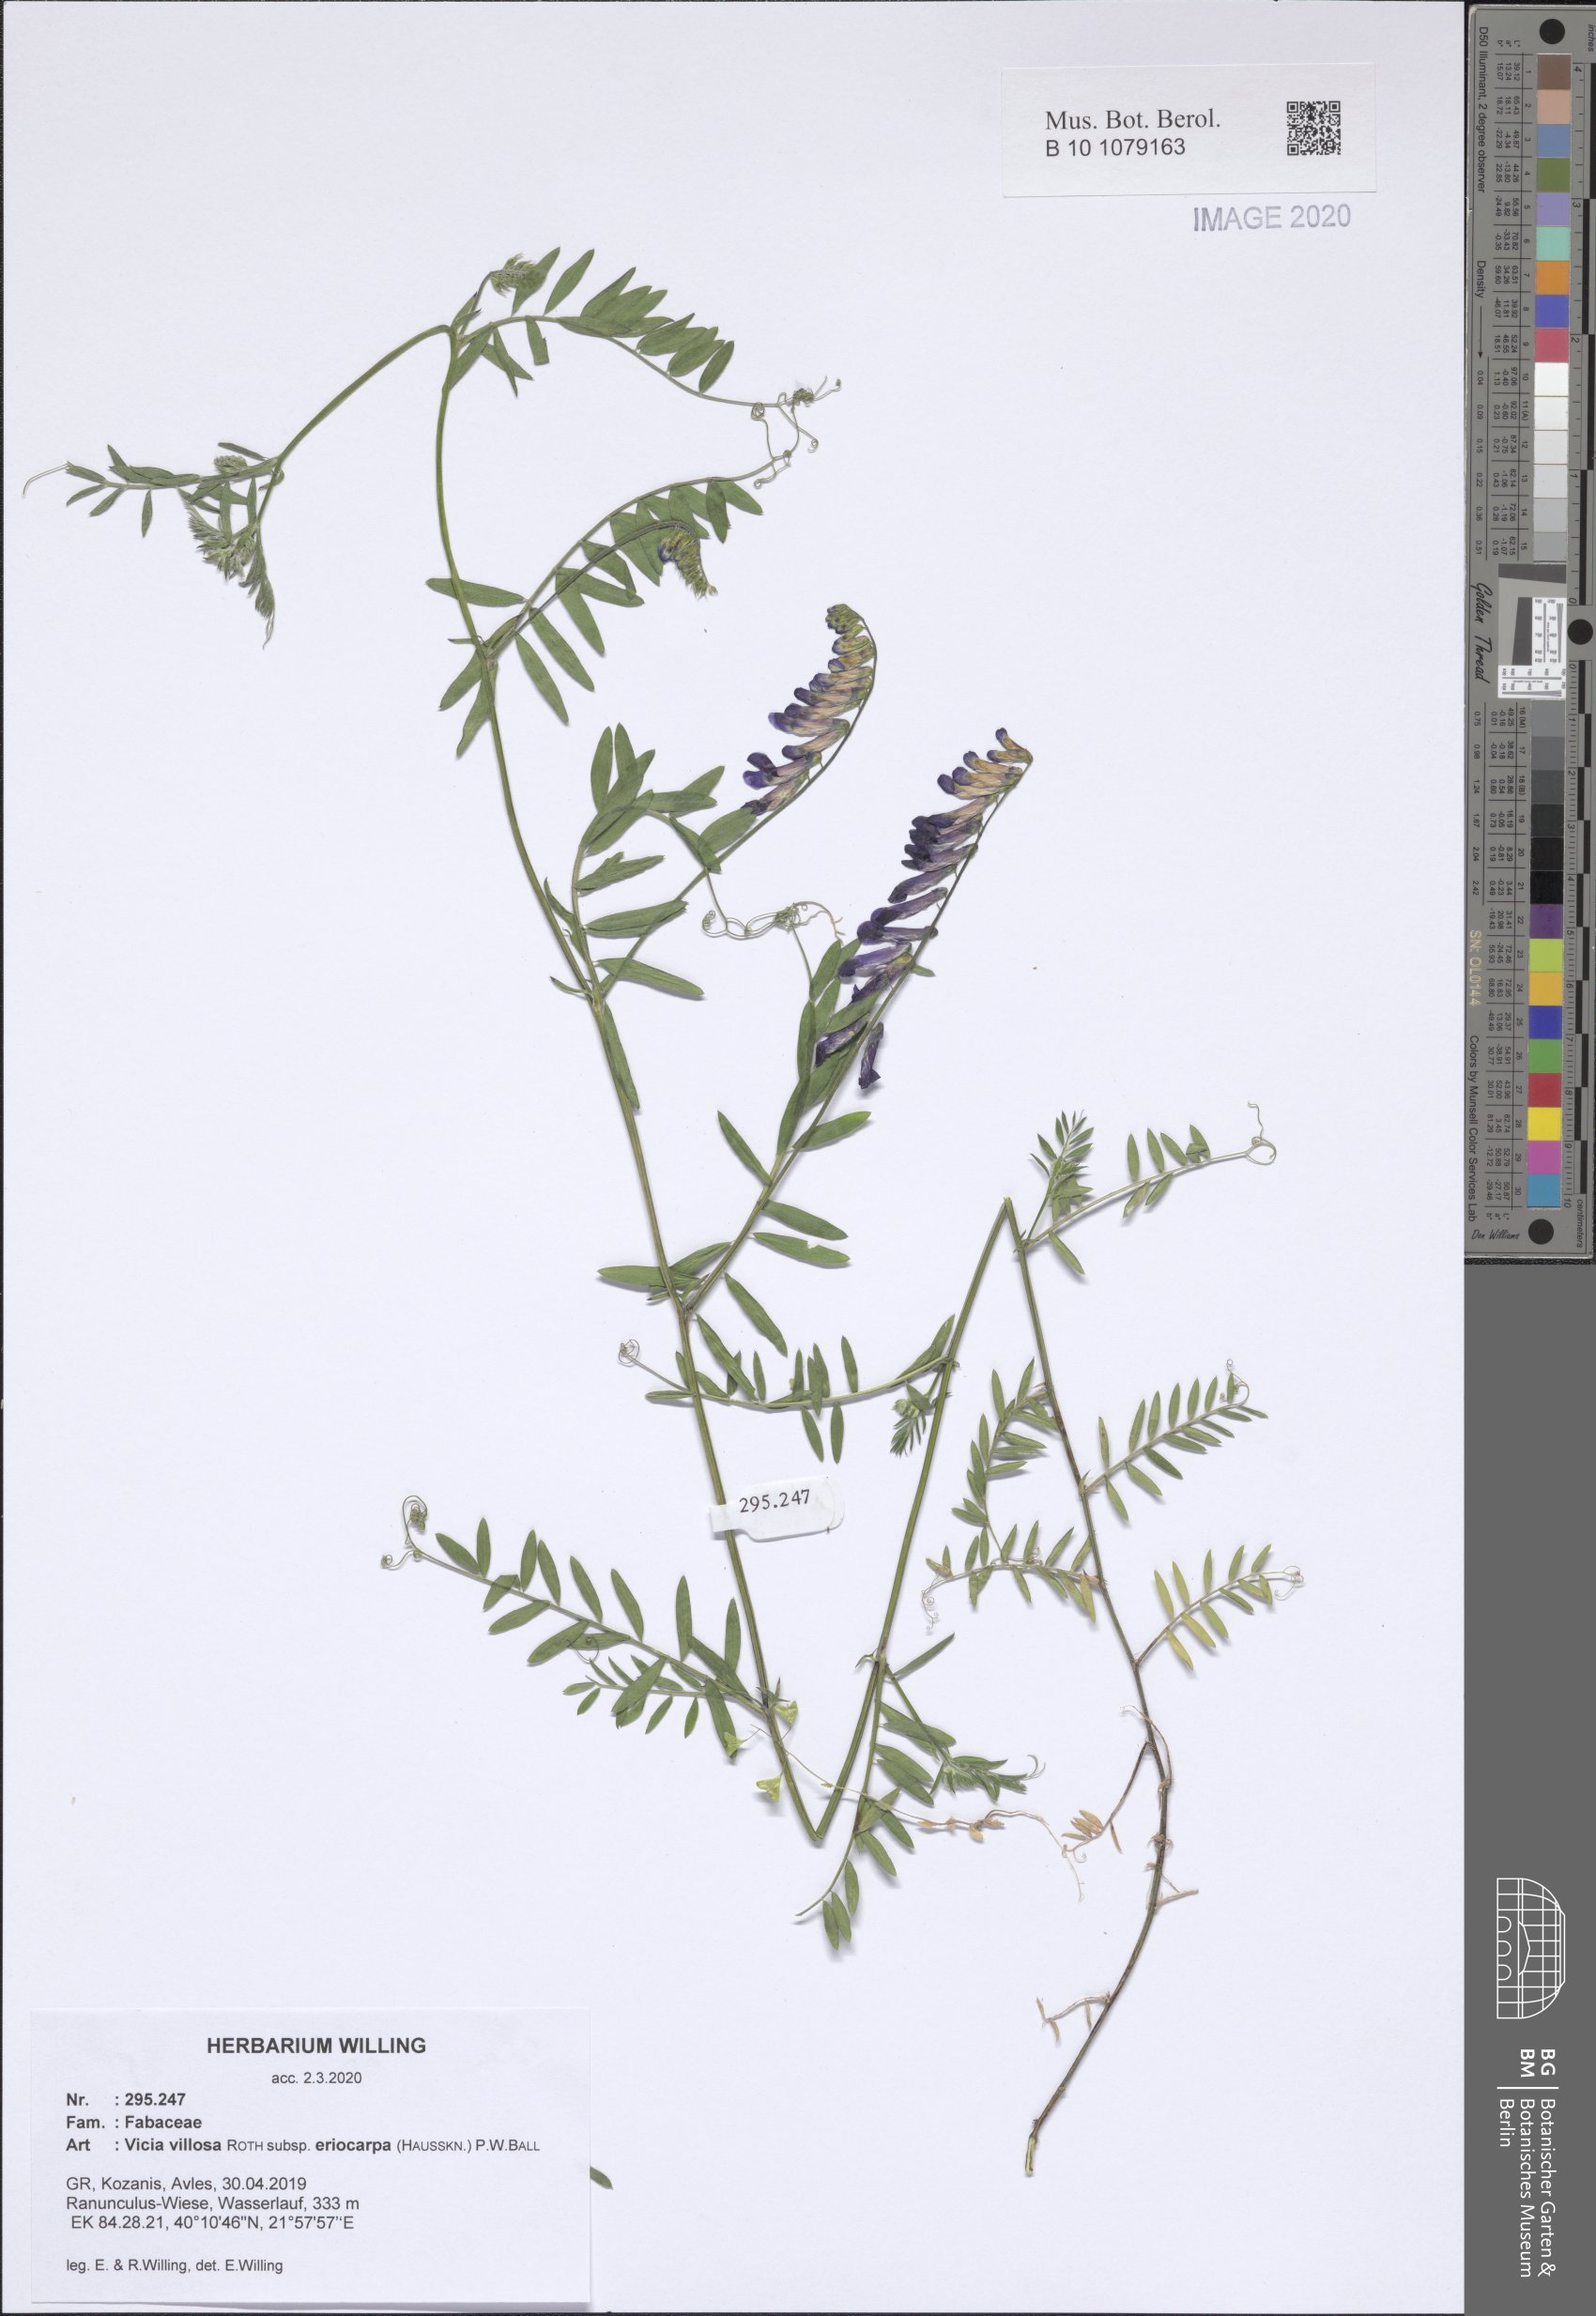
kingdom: Plantae
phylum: Tracheophyta
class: Magnoliopsida
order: Fabales
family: Fabaceae
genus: Vicia
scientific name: Vicia eriocarpa
